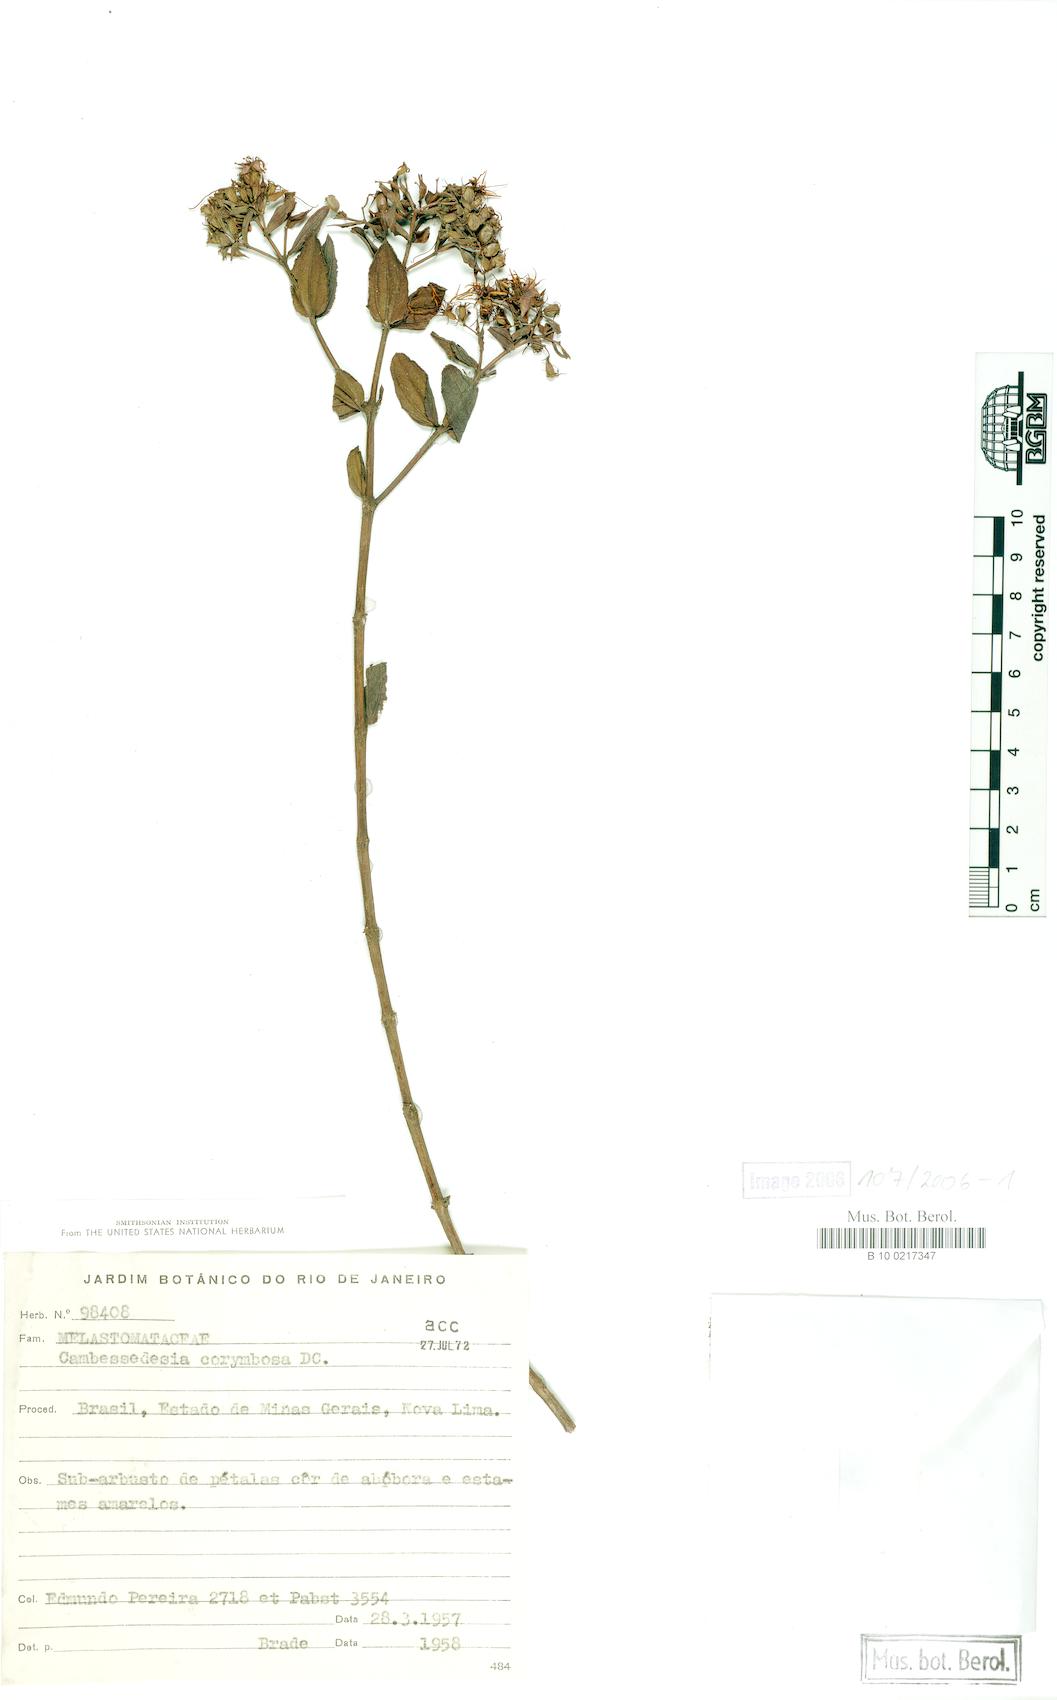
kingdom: Plantae
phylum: Tracheophyta
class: Magnoliopsida
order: Myrtales
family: Melastomataceae
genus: Cambessedesia
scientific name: Cambessedesia corymbosa
